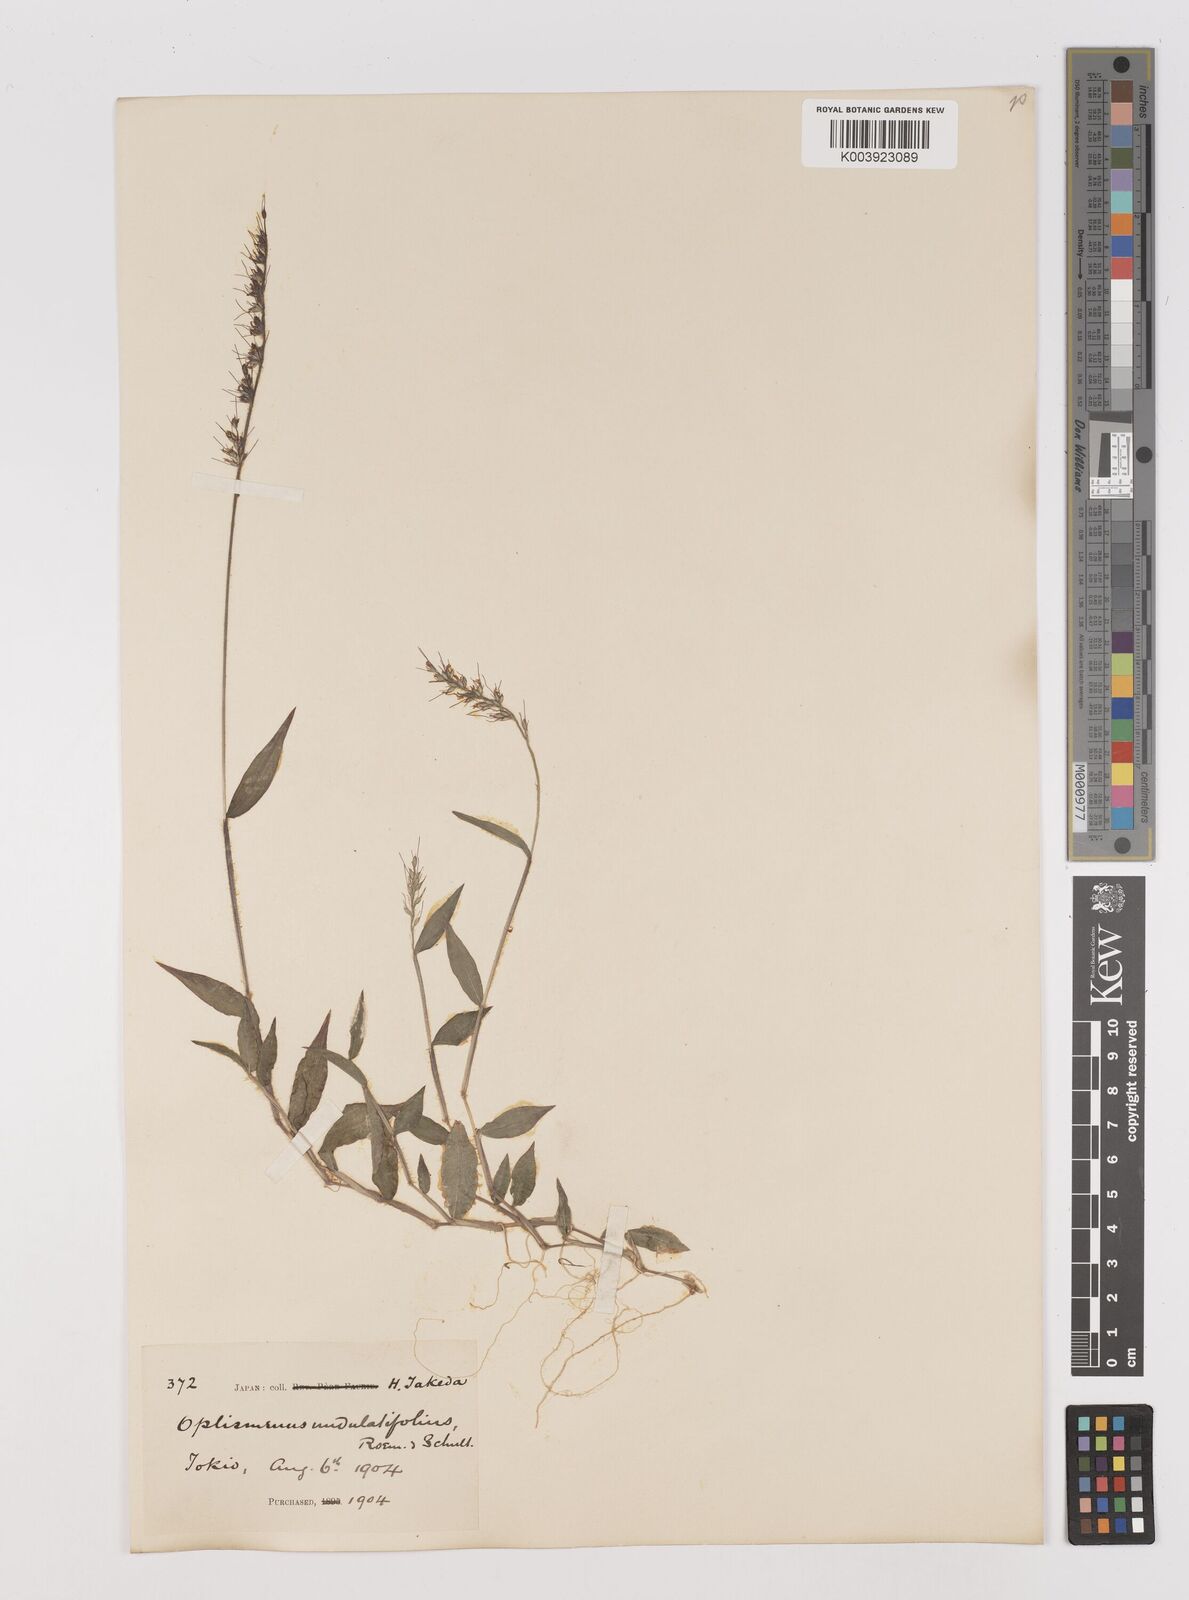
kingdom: Plantae
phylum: Tracheophyta
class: Liliopsida
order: Poales
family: Poaceae
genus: Oplismenus
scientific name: Oplismenus undulatifolius
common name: Wavyleaf basketgrass
